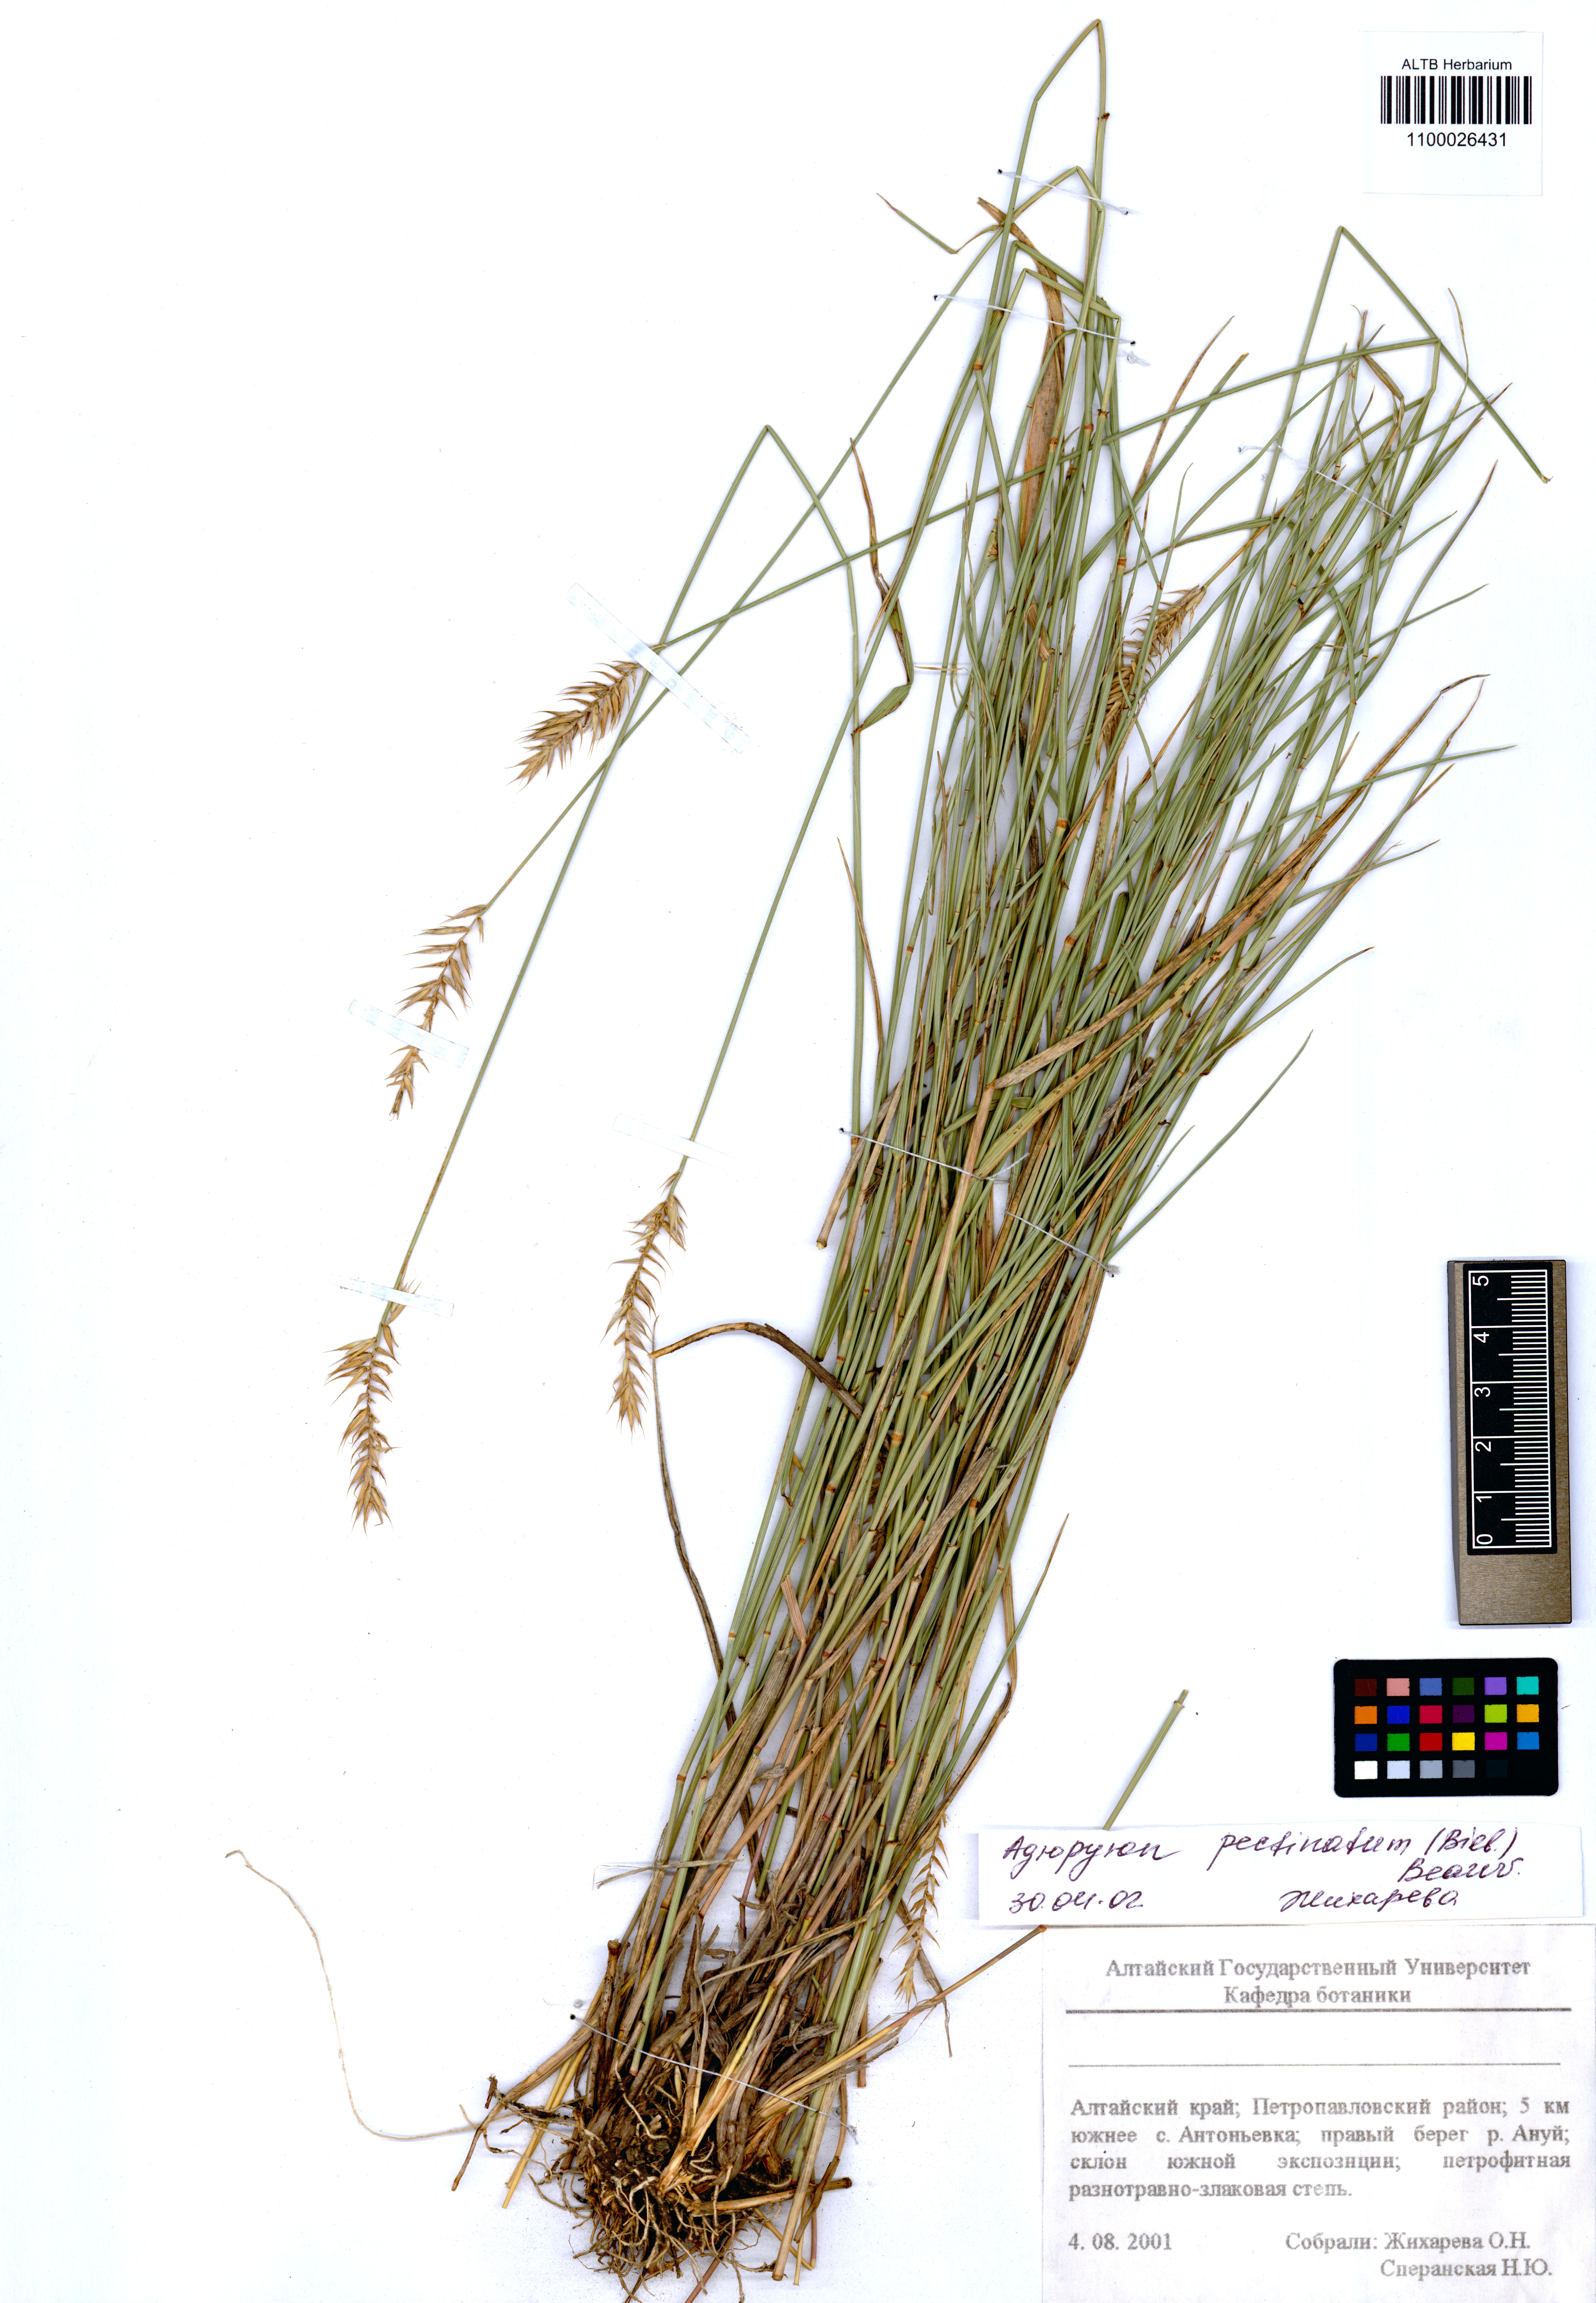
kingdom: Plantae
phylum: Tracheophyta
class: Liliopsida
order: Poales
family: Poaceae
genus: Agropyron
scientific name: Agropyron cristatum
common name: Crested wheatgrass
